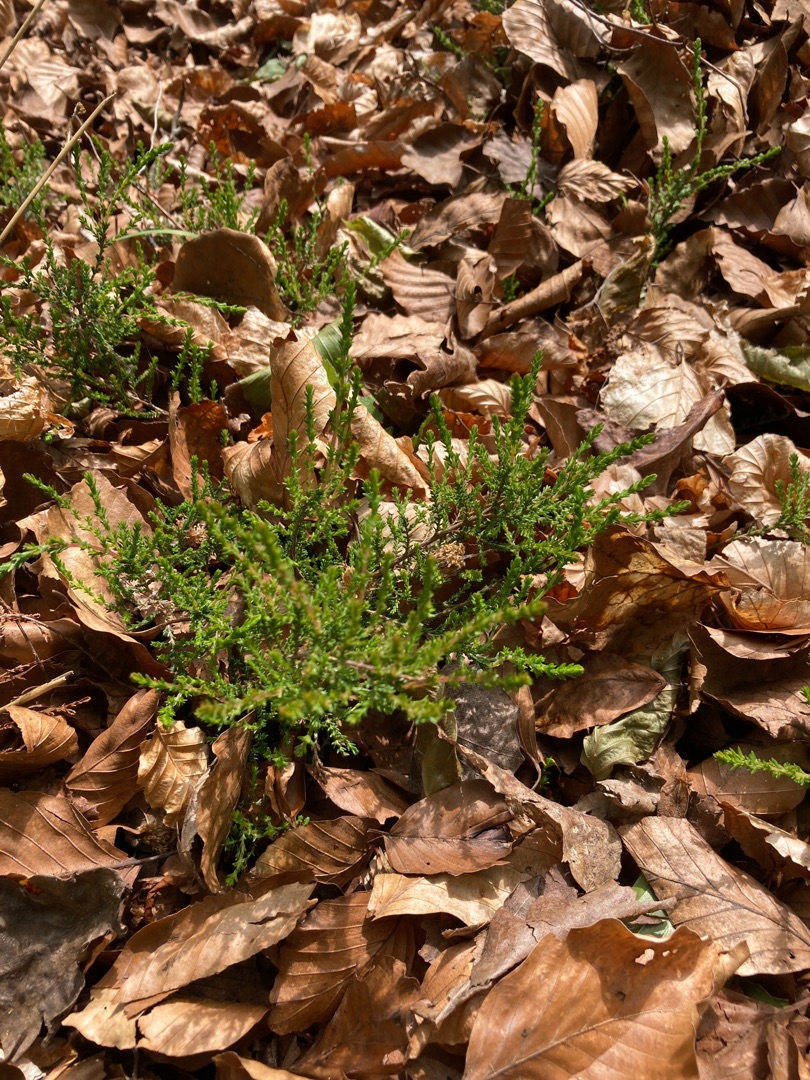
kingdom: Plantae
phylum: Tracheophyta
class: Magnoliopsida
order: Ericales
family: Ericaceae
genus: Calluna
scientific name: Calluna vulgaris
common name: Hedelyng
